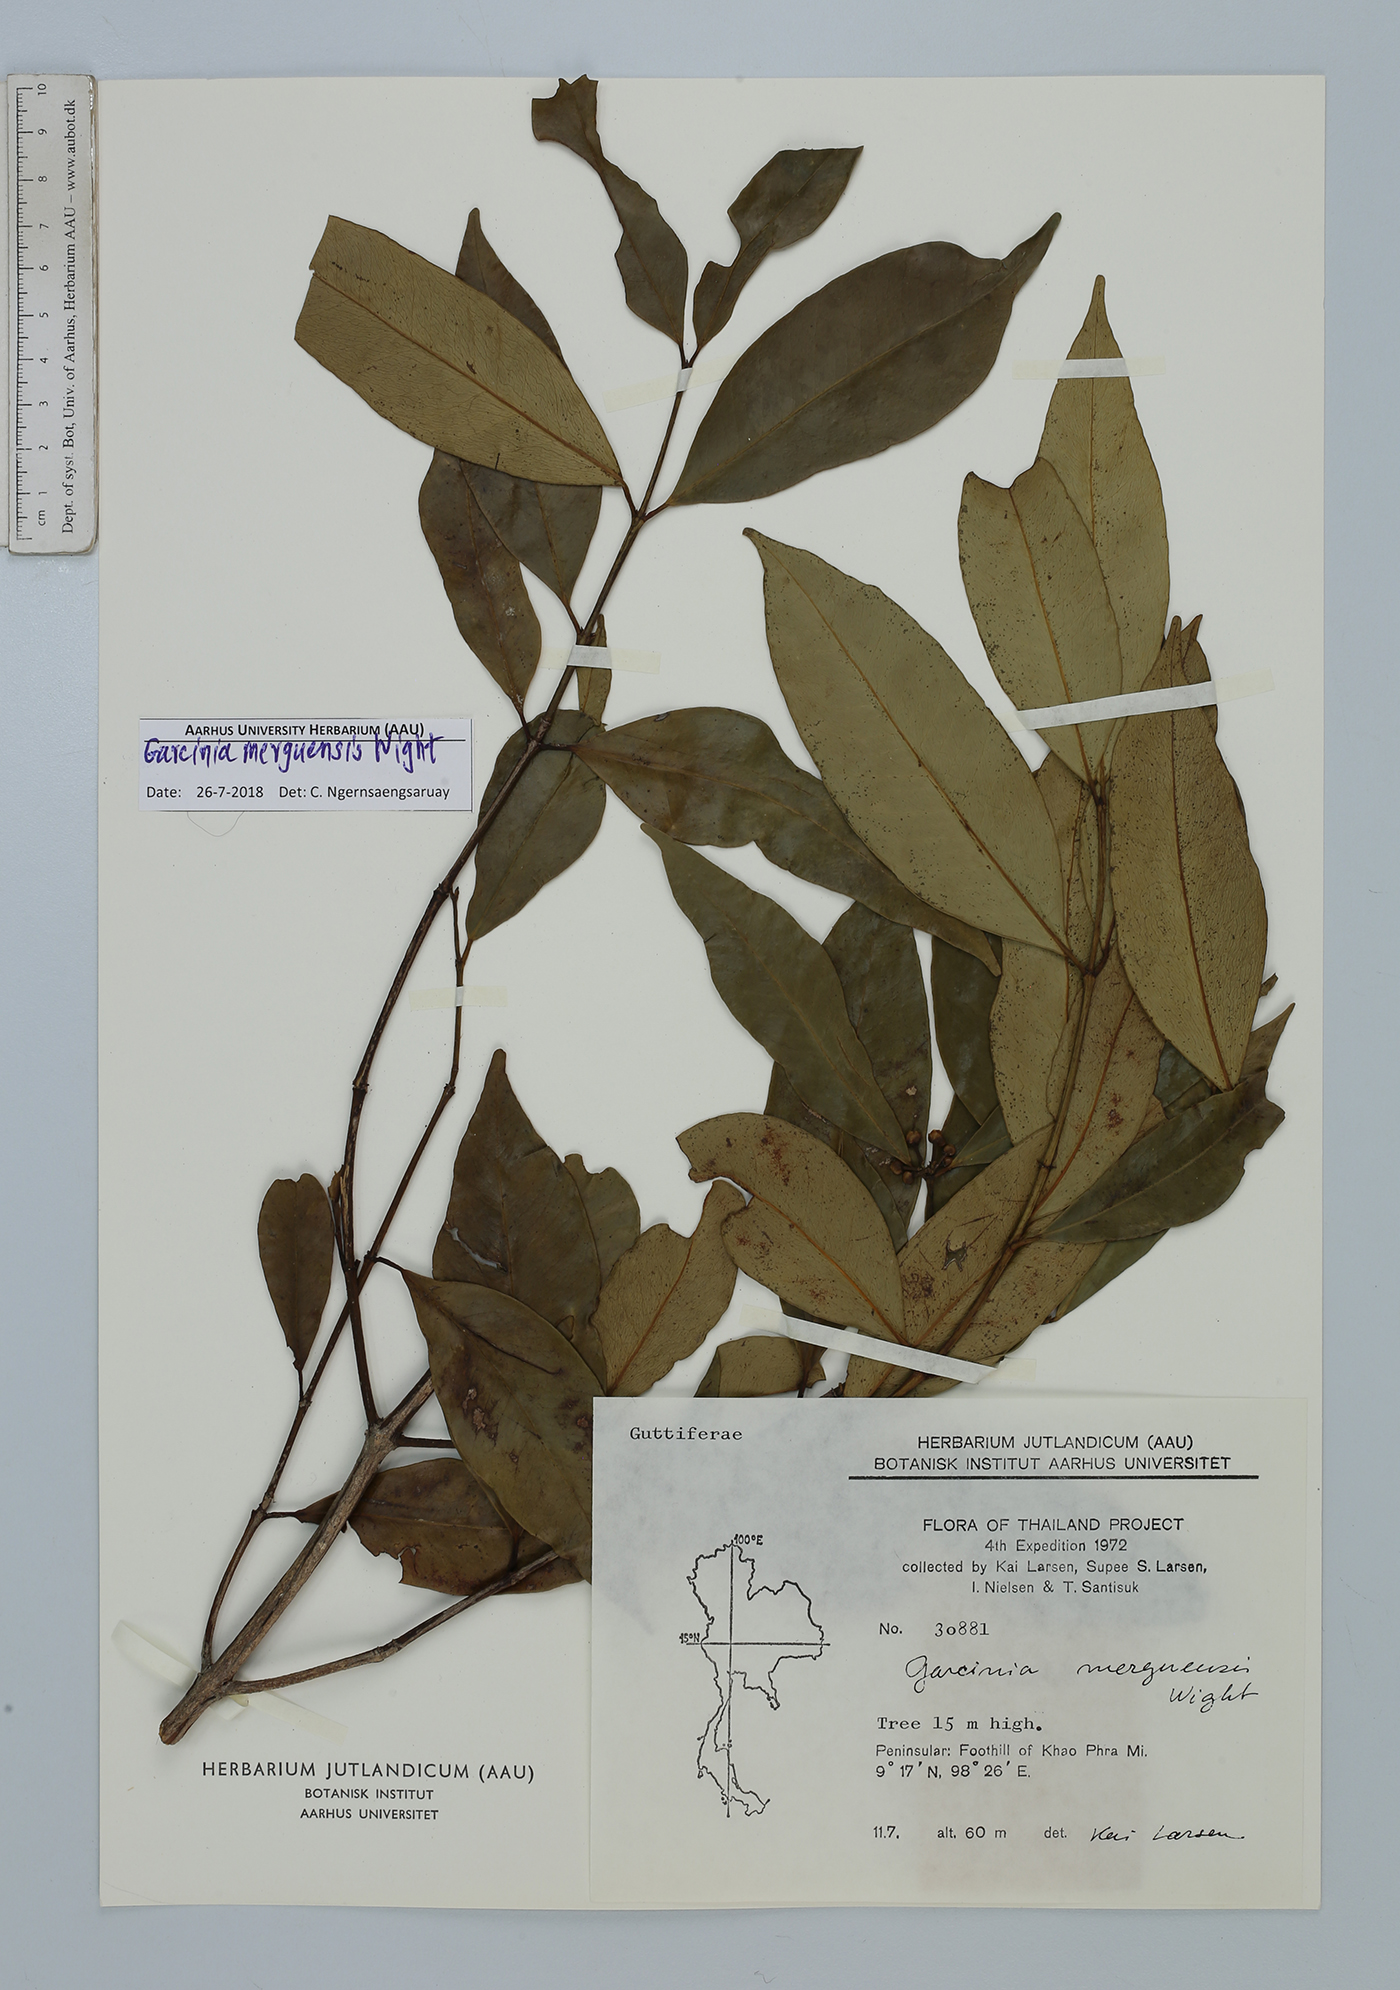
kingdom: Plantae
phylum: Tracheophyta
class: Magnoliopsida
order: Malpighiales
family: Clusiaceae
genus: Garcinia
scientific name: Garcinia merguensis
